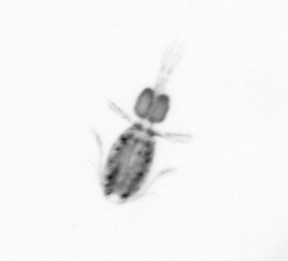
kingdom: Animalia
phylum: Arthropoda
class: Copepoda
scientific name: Copepoda
